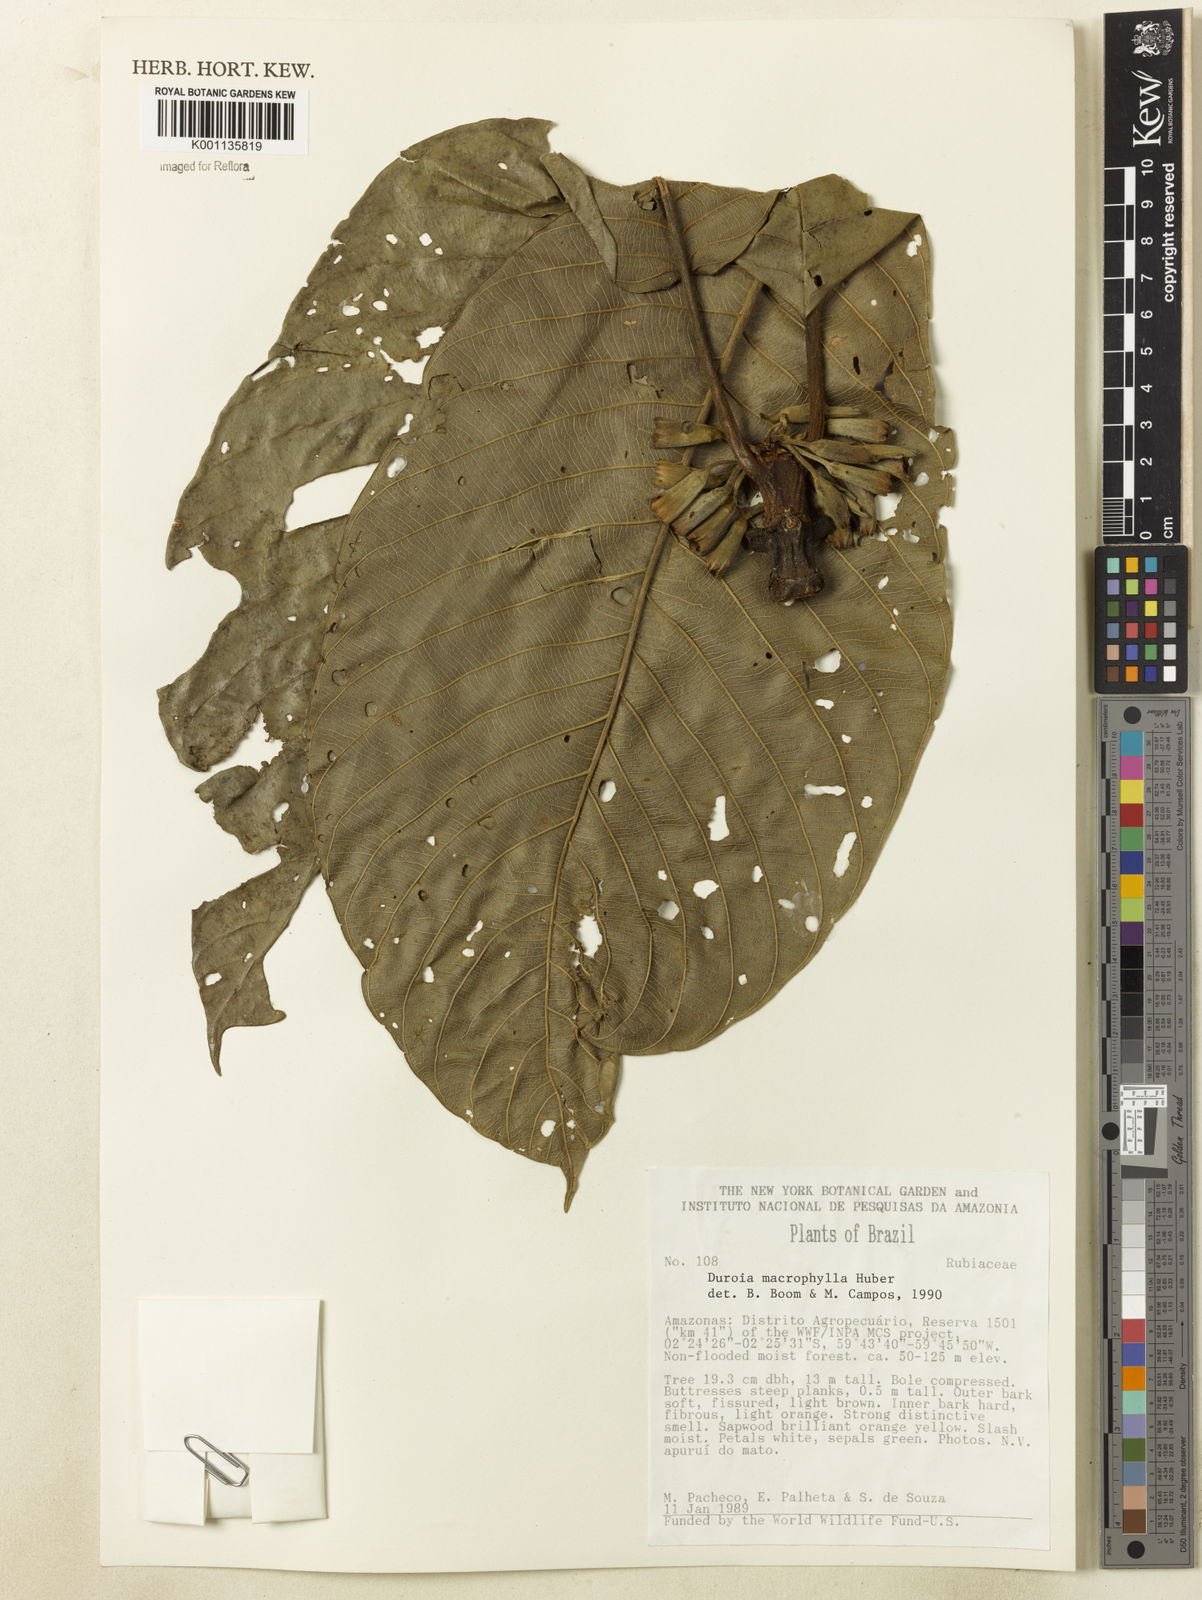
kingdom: Plantae
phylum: Tracheophyta
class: Magnoliopsida
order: Gentianales
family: Rubiaceae
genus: Duroia
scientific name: Duroia macrophylla
